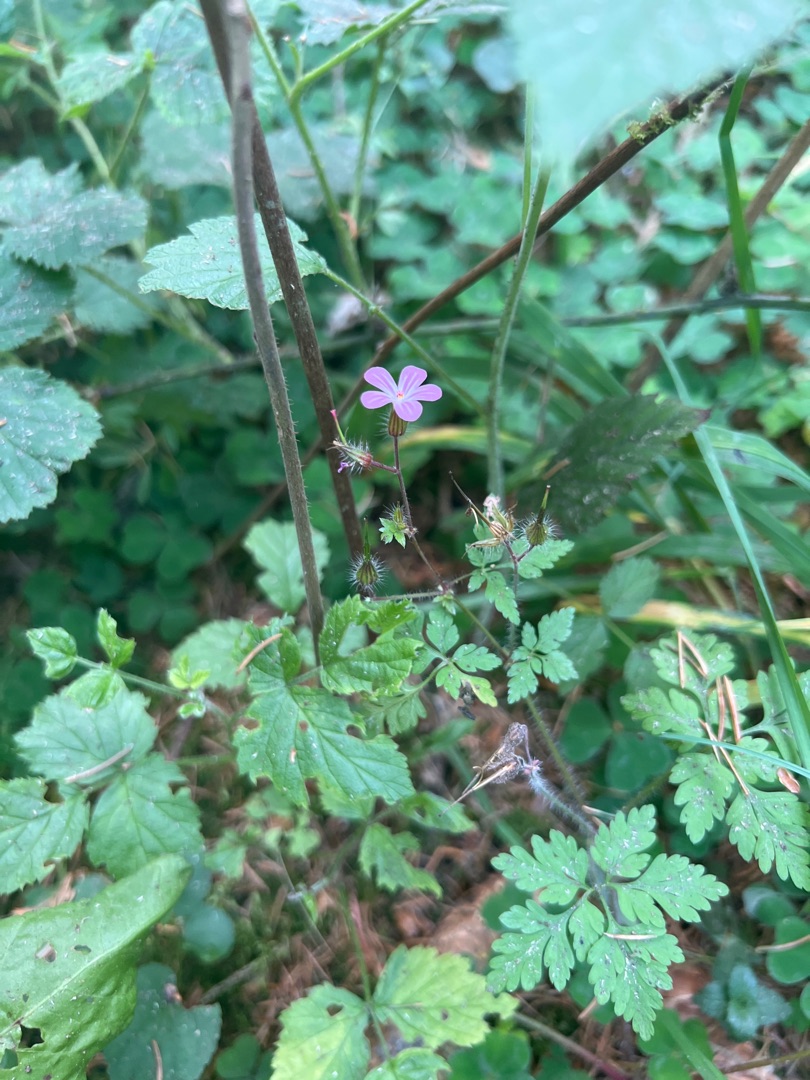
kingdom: Plantae
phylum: Tracheophyta
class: Magnoliopsida
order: Geraniales
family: Geraniaceae
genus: Geranium
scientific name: Geranium robertianum
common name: Stinkende storkenæb
